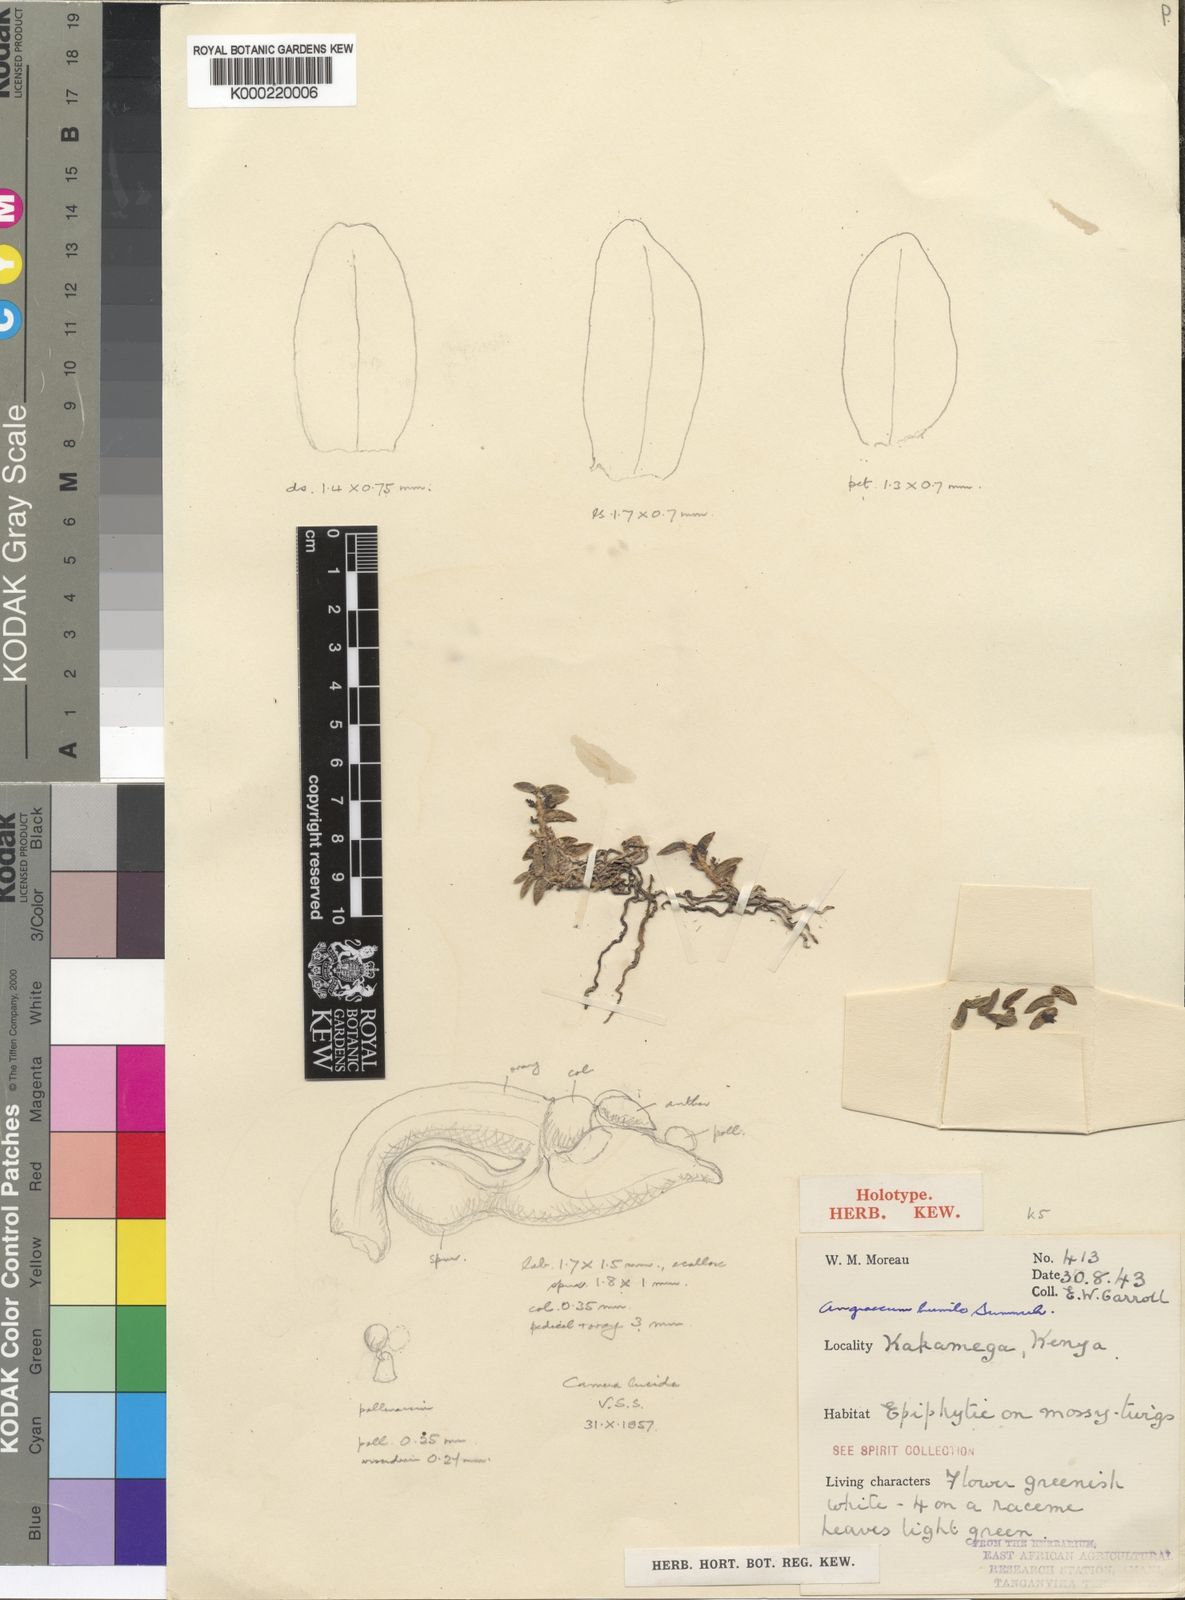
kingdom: Plantae
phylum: Tracheophyta
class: Liliopsida
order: Asparagales
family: Orchidaceae
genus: Angraecum
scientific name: Angraecum humile
